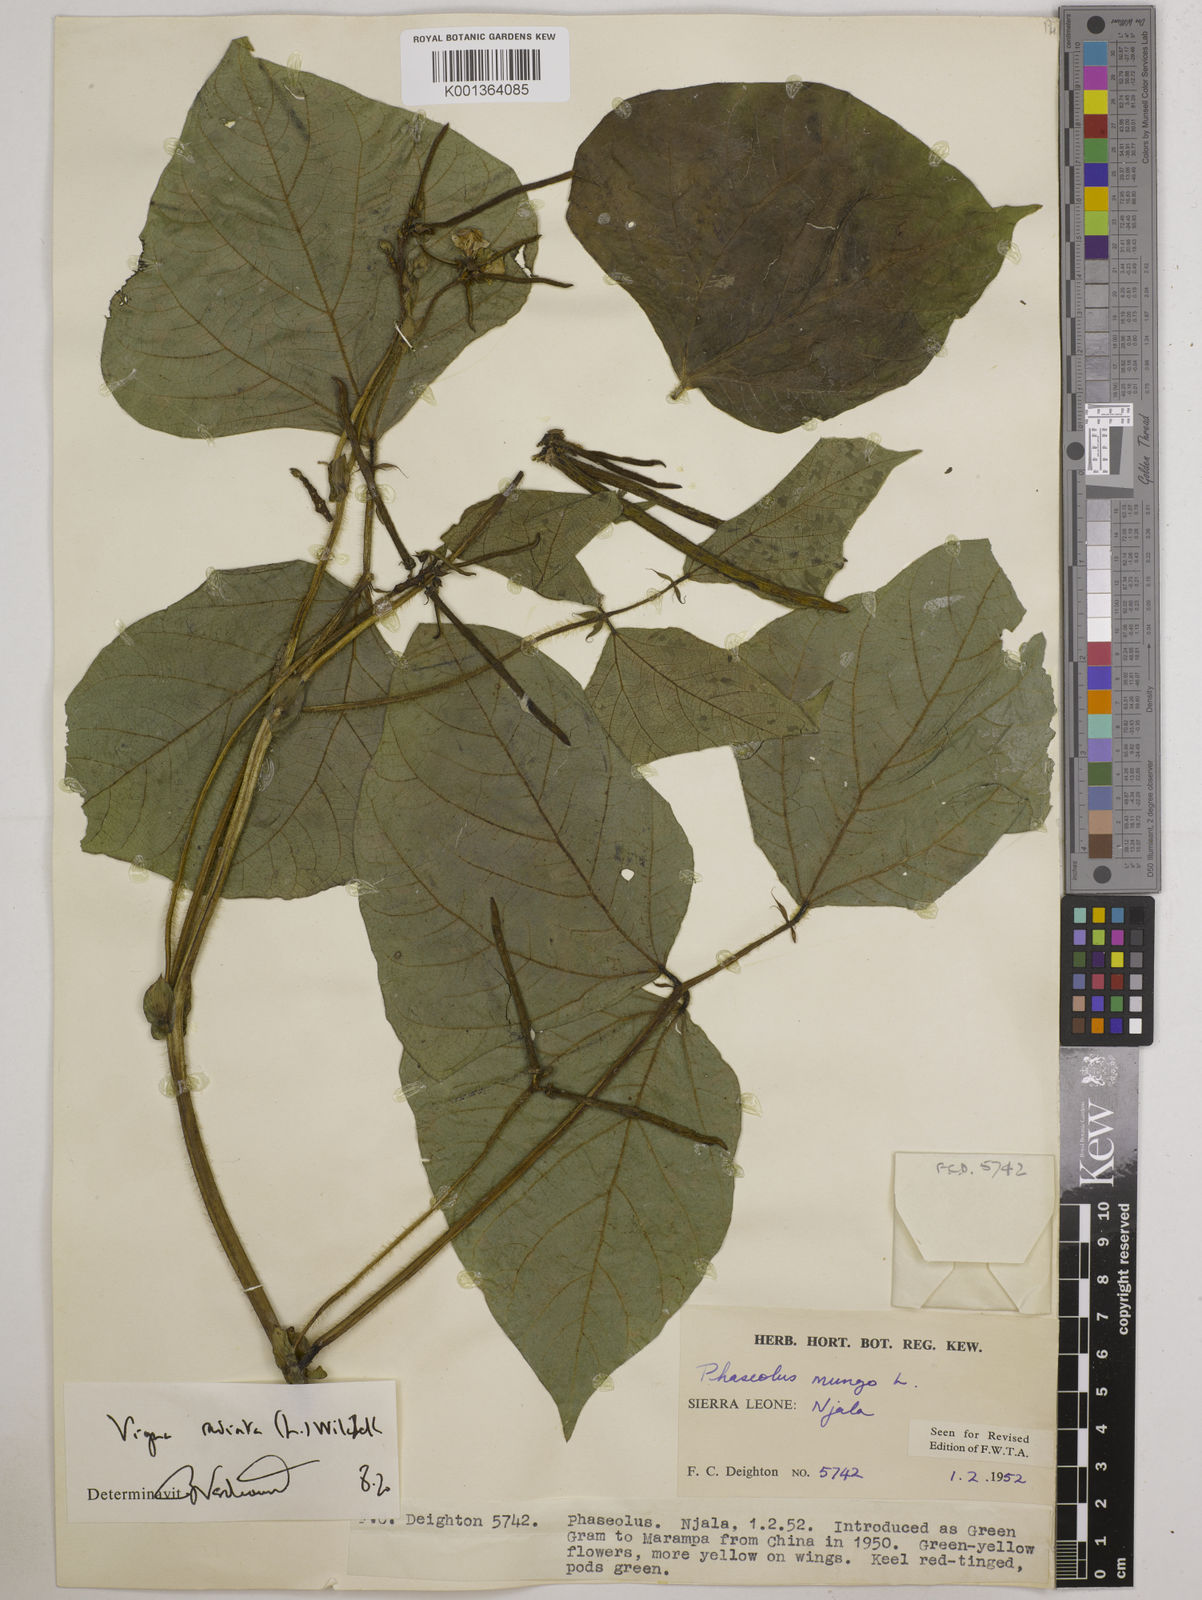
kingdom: Plantae
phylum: Tracheophyta
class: Magnoliopsida
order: Fabales
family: Fabaceae
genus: Vigna
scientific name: Vigna radiata
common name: Mung-bean
